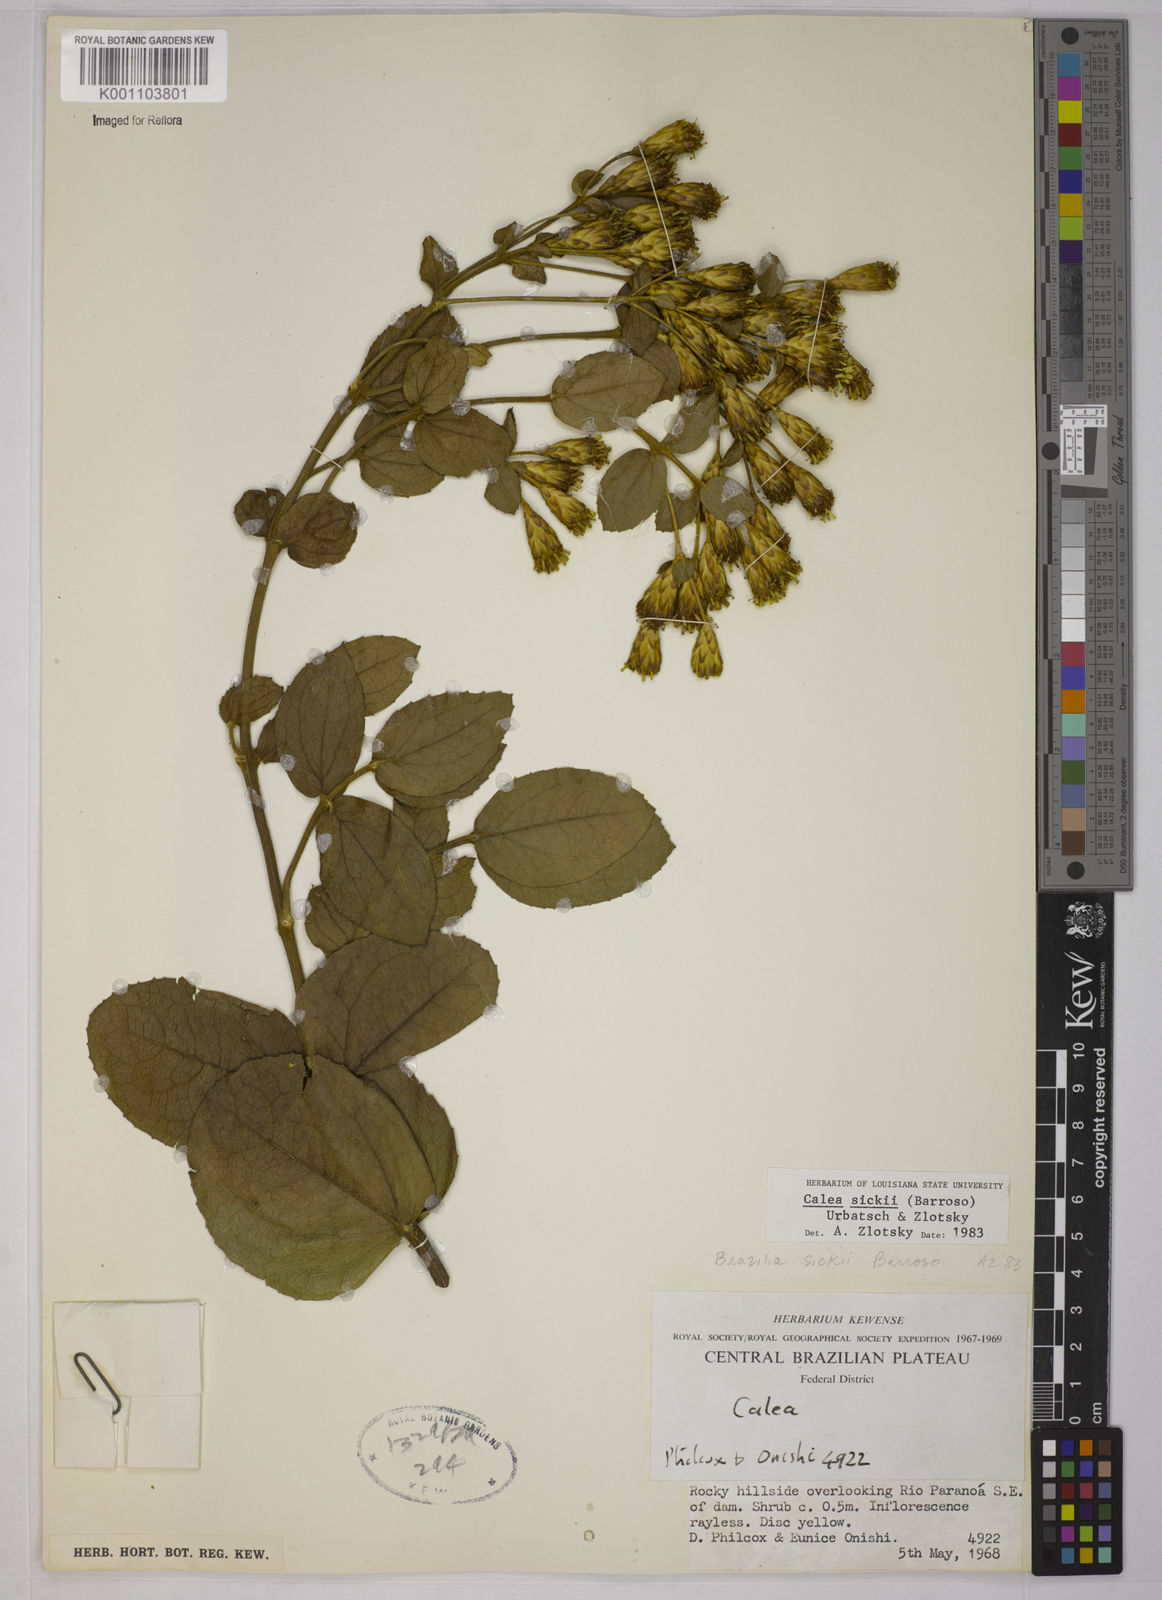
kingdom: Plantae
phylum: Tracheophyta
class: Magnoliopsida
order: Asterales
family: Asteraceae
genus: Calea
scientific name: Calea sickii
